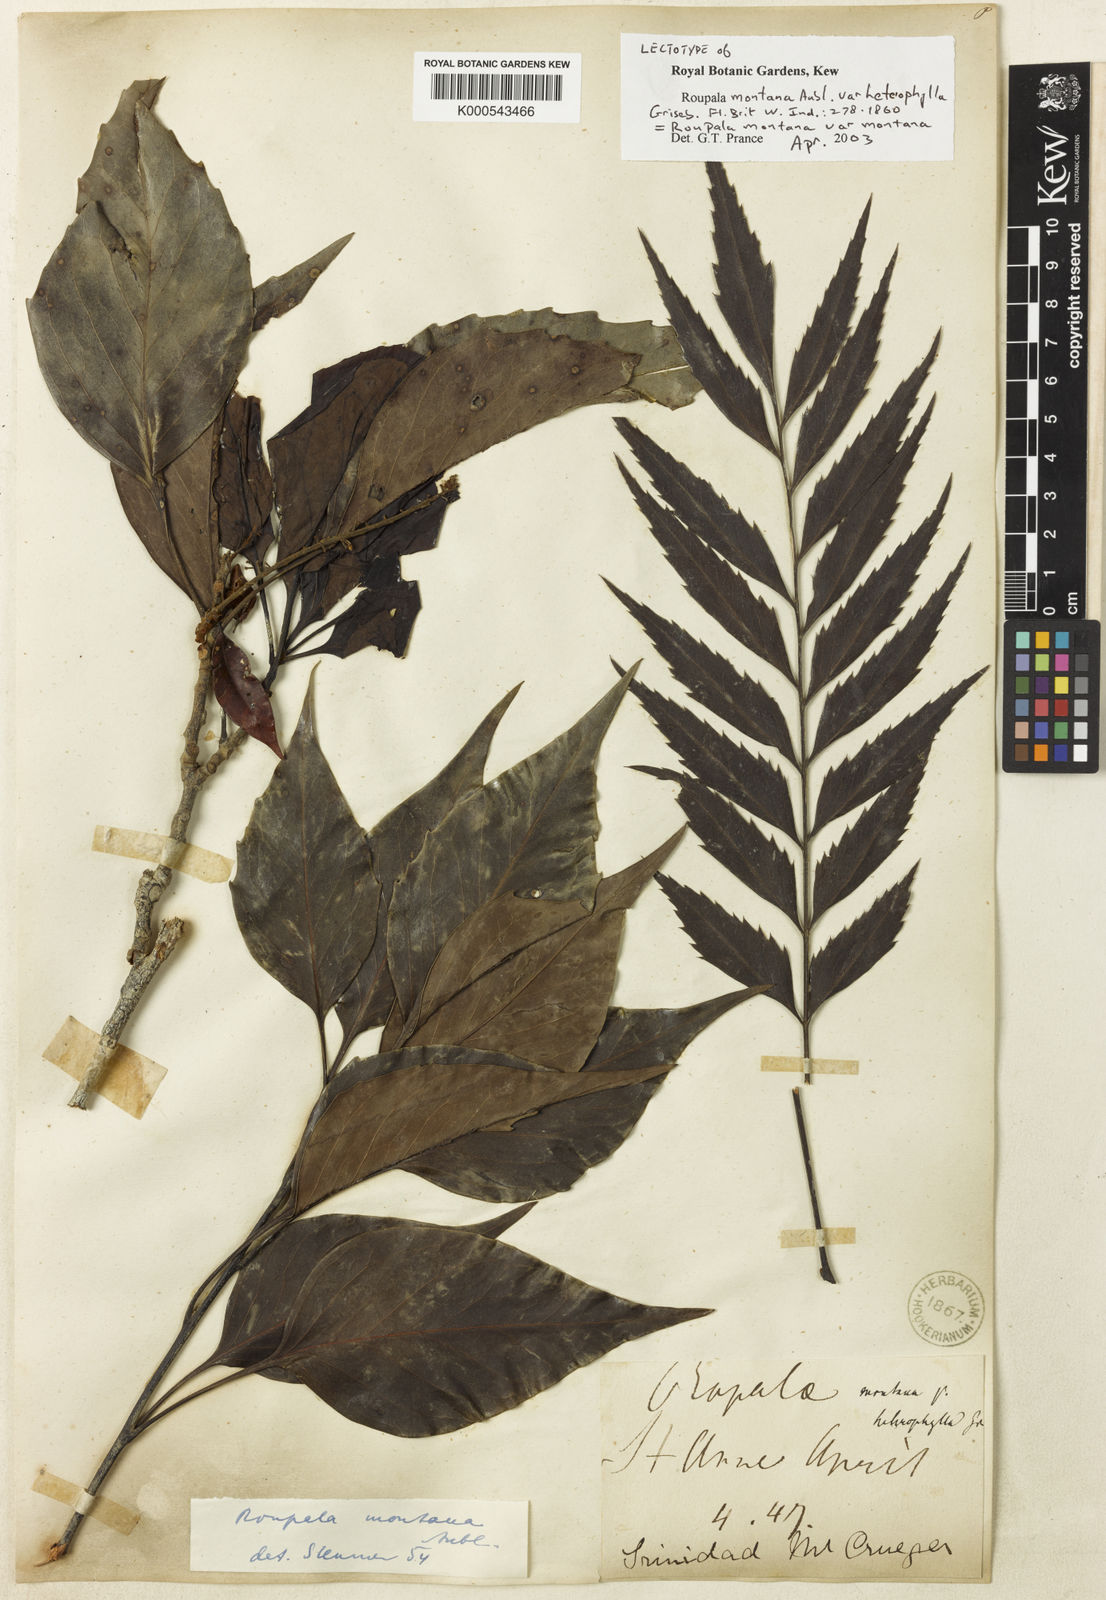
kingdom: Plantae
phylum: Tracheophyta
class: Magnoliopsida
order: Proteales
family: Proteaceae
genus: Roupala
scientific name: Roupala montana
